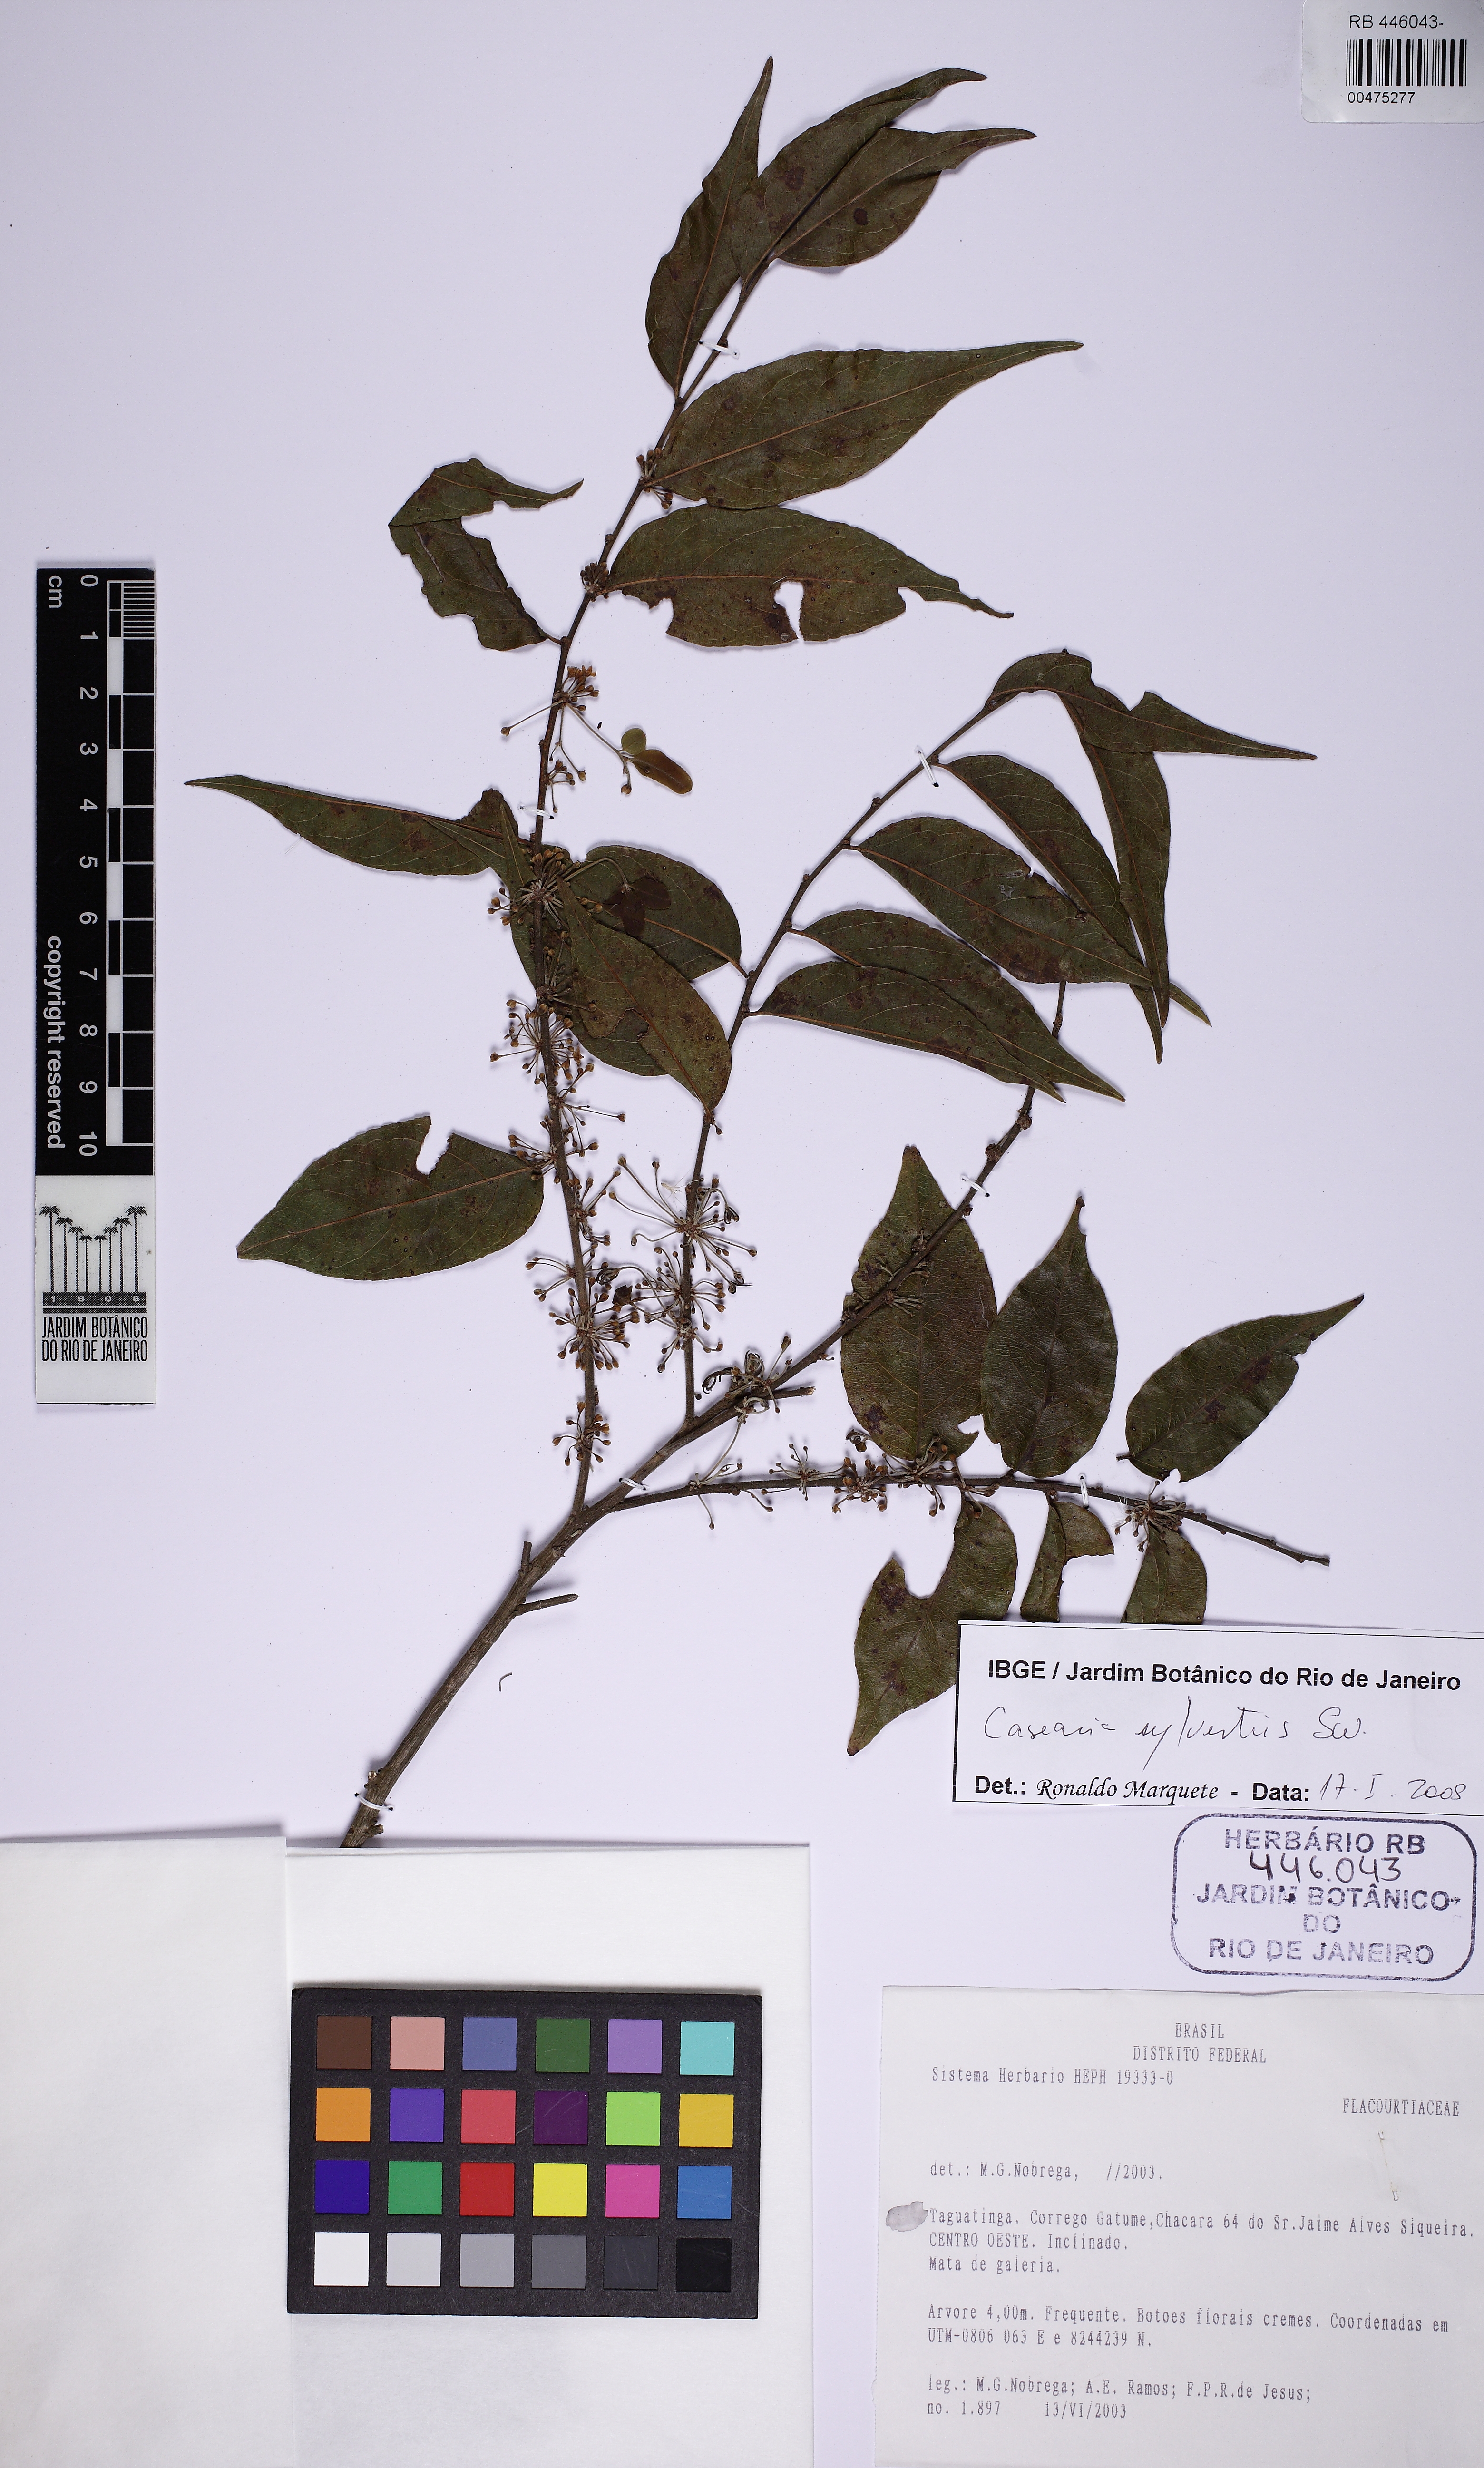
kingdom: Plantae
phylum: Tracheophyta
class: Magnoliopsida
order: Malpighiales
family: Salicaceae
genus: Casearia
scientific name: Casearia sylvestris
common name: Wild sage
